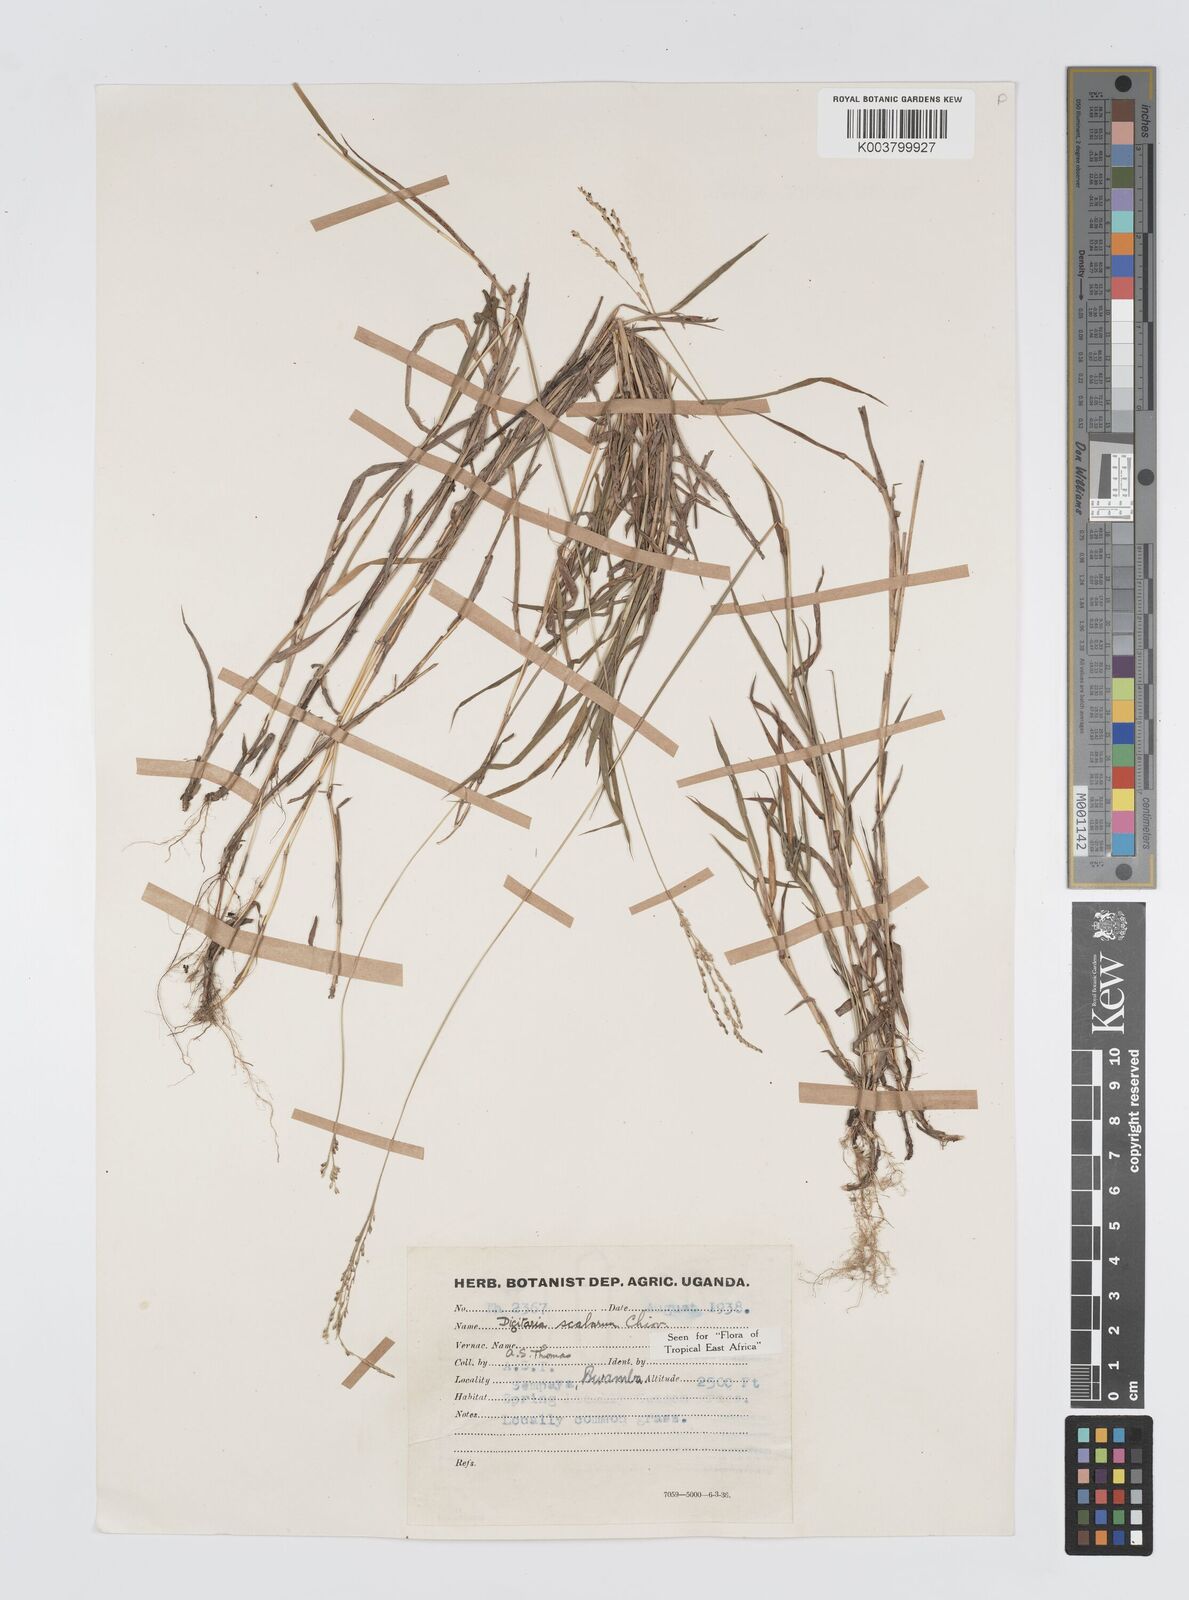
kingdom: Plantae
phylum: Tracheophyta
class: Liliopsida
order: Poales
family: Poaceae
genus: Digitaria
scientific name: Digitaria abyssinica
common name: African couchgrass
